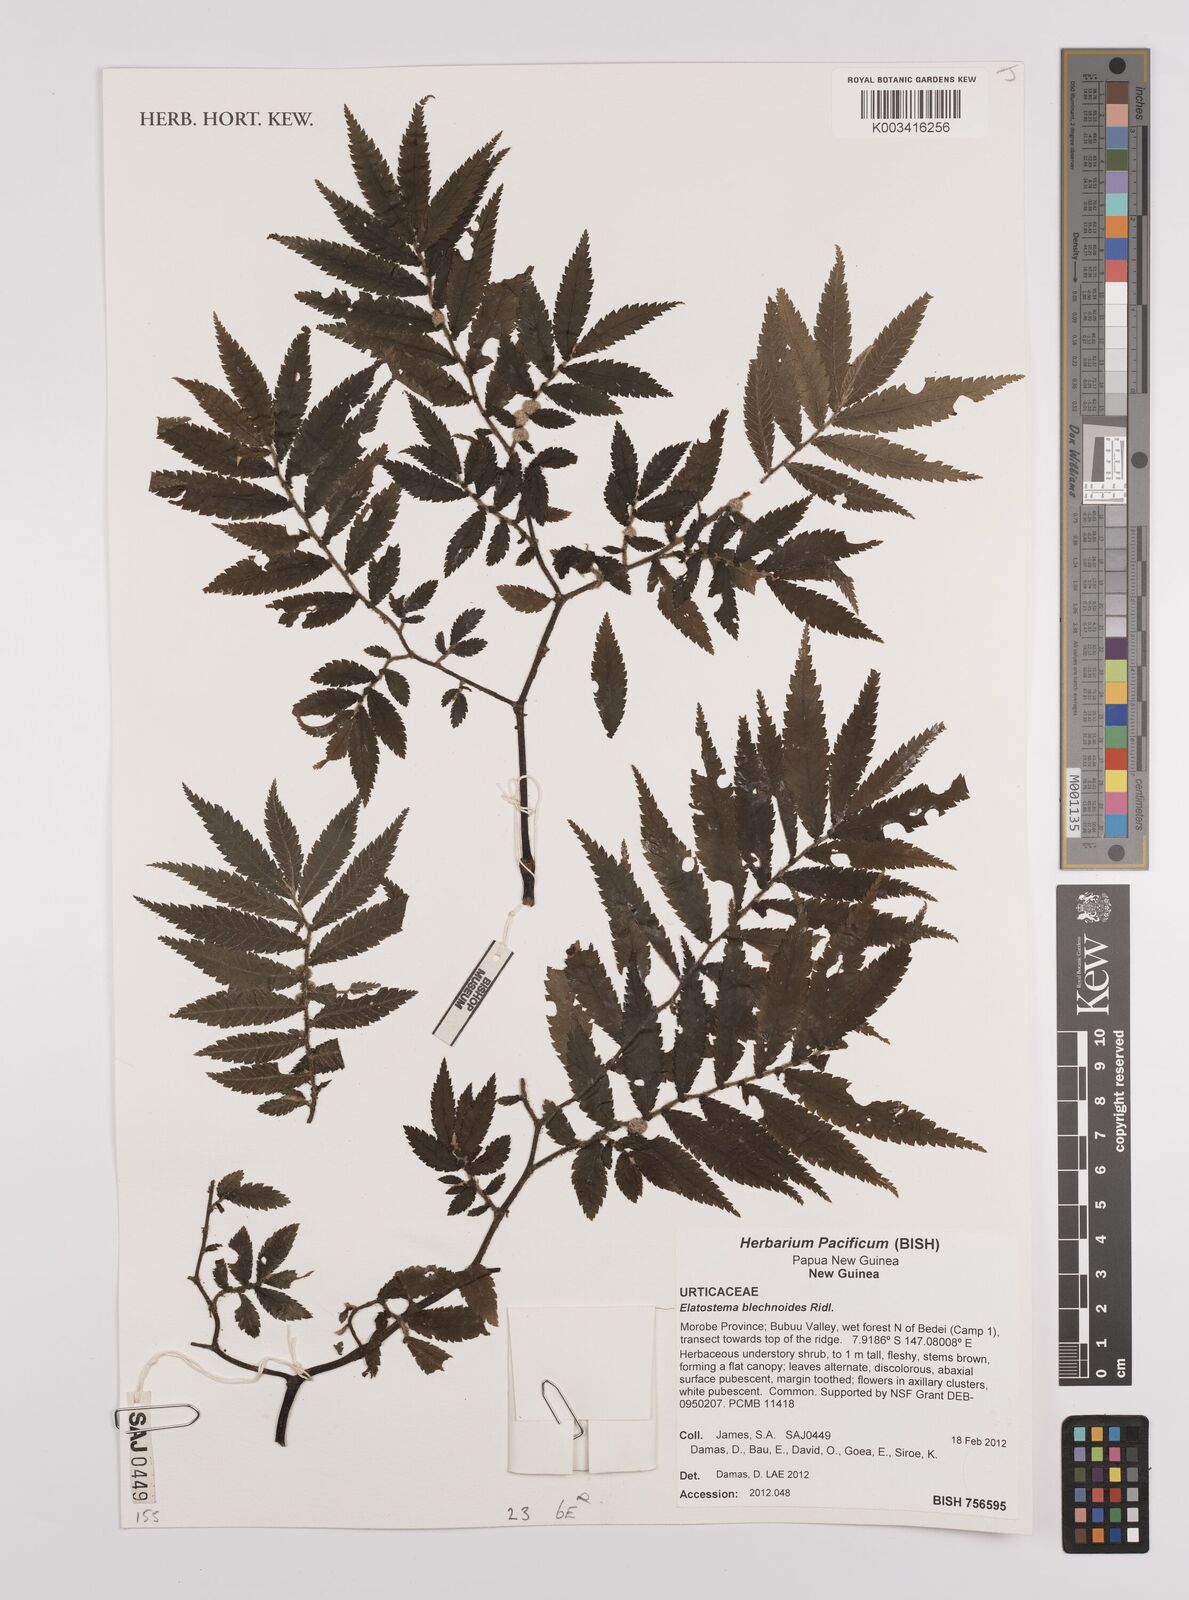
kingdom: Plantae
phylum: Tracheophyta
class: Magnoliopsida
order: Rosales
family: Urticaceae
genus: Elatostema
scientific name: Elatostema blechnoides
